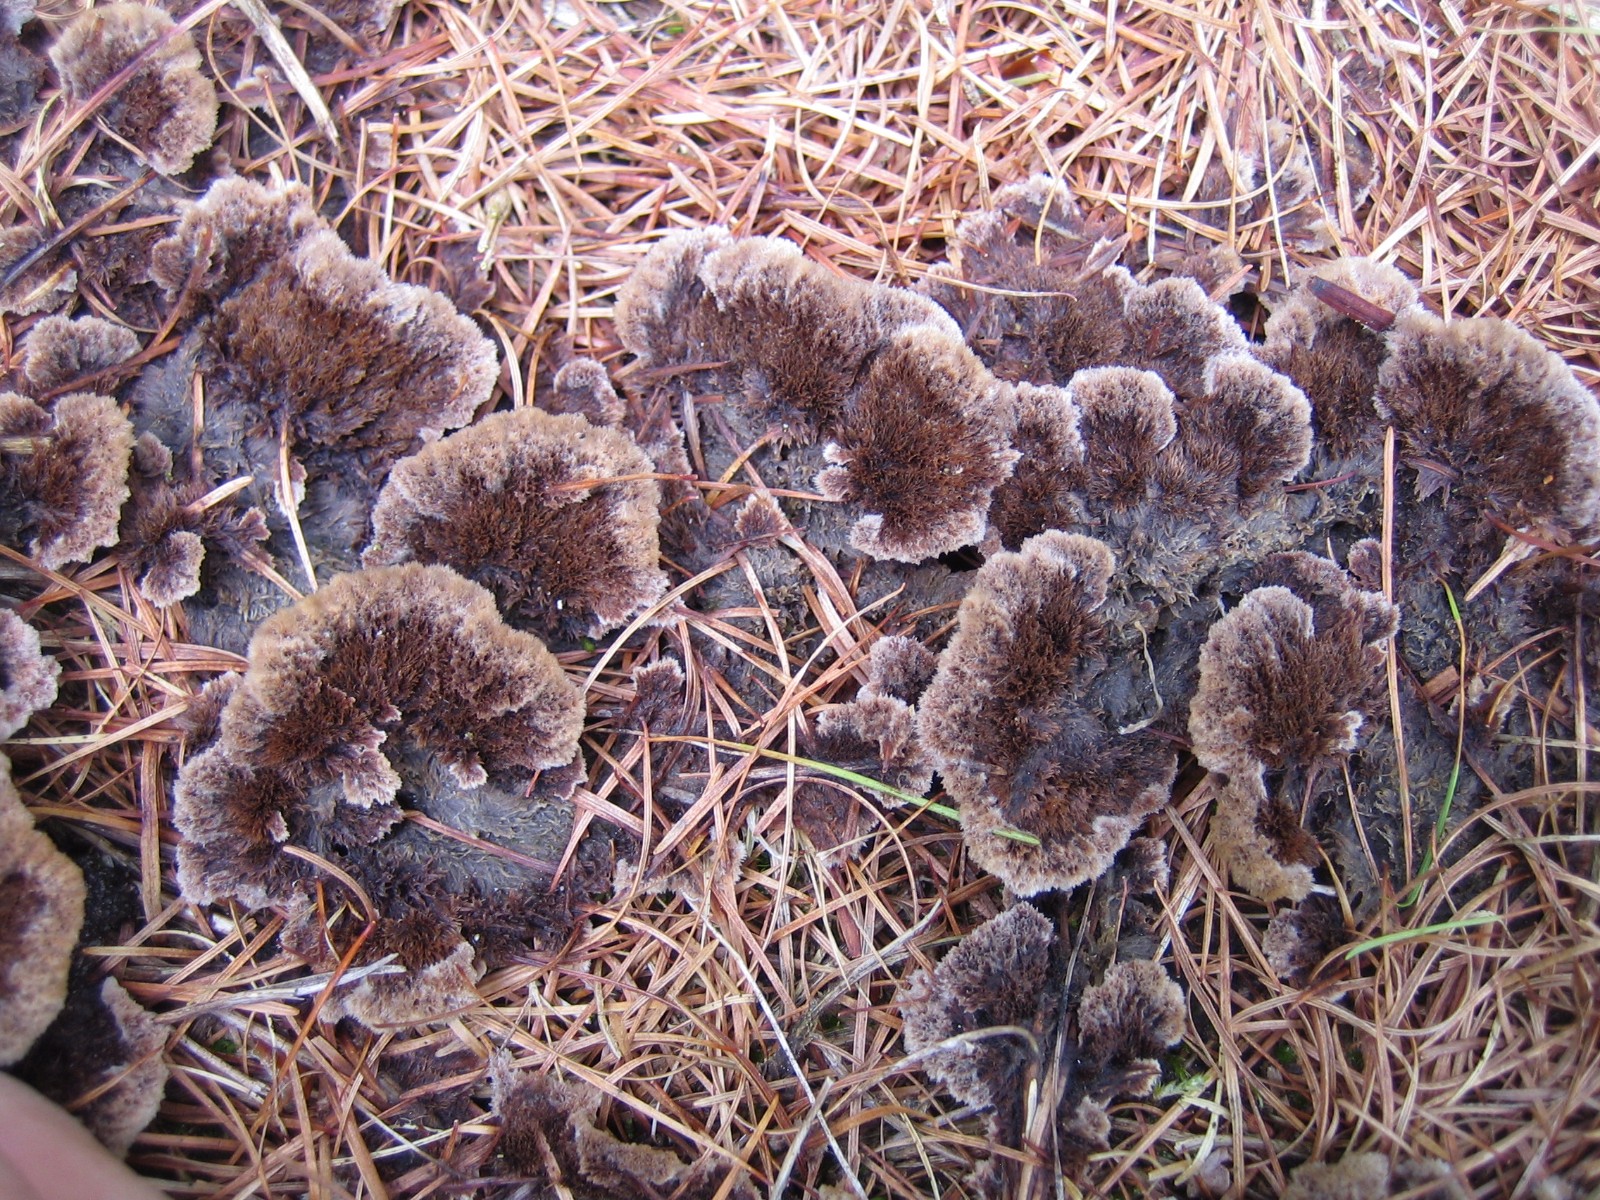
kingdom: Fungi
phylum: Basidiomycota
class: Agaricomycetes
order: Thelephorales
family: Thelephoraceae
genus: Thelephora
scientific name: Thelephora terrestris
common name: fliget frynsesvamp
